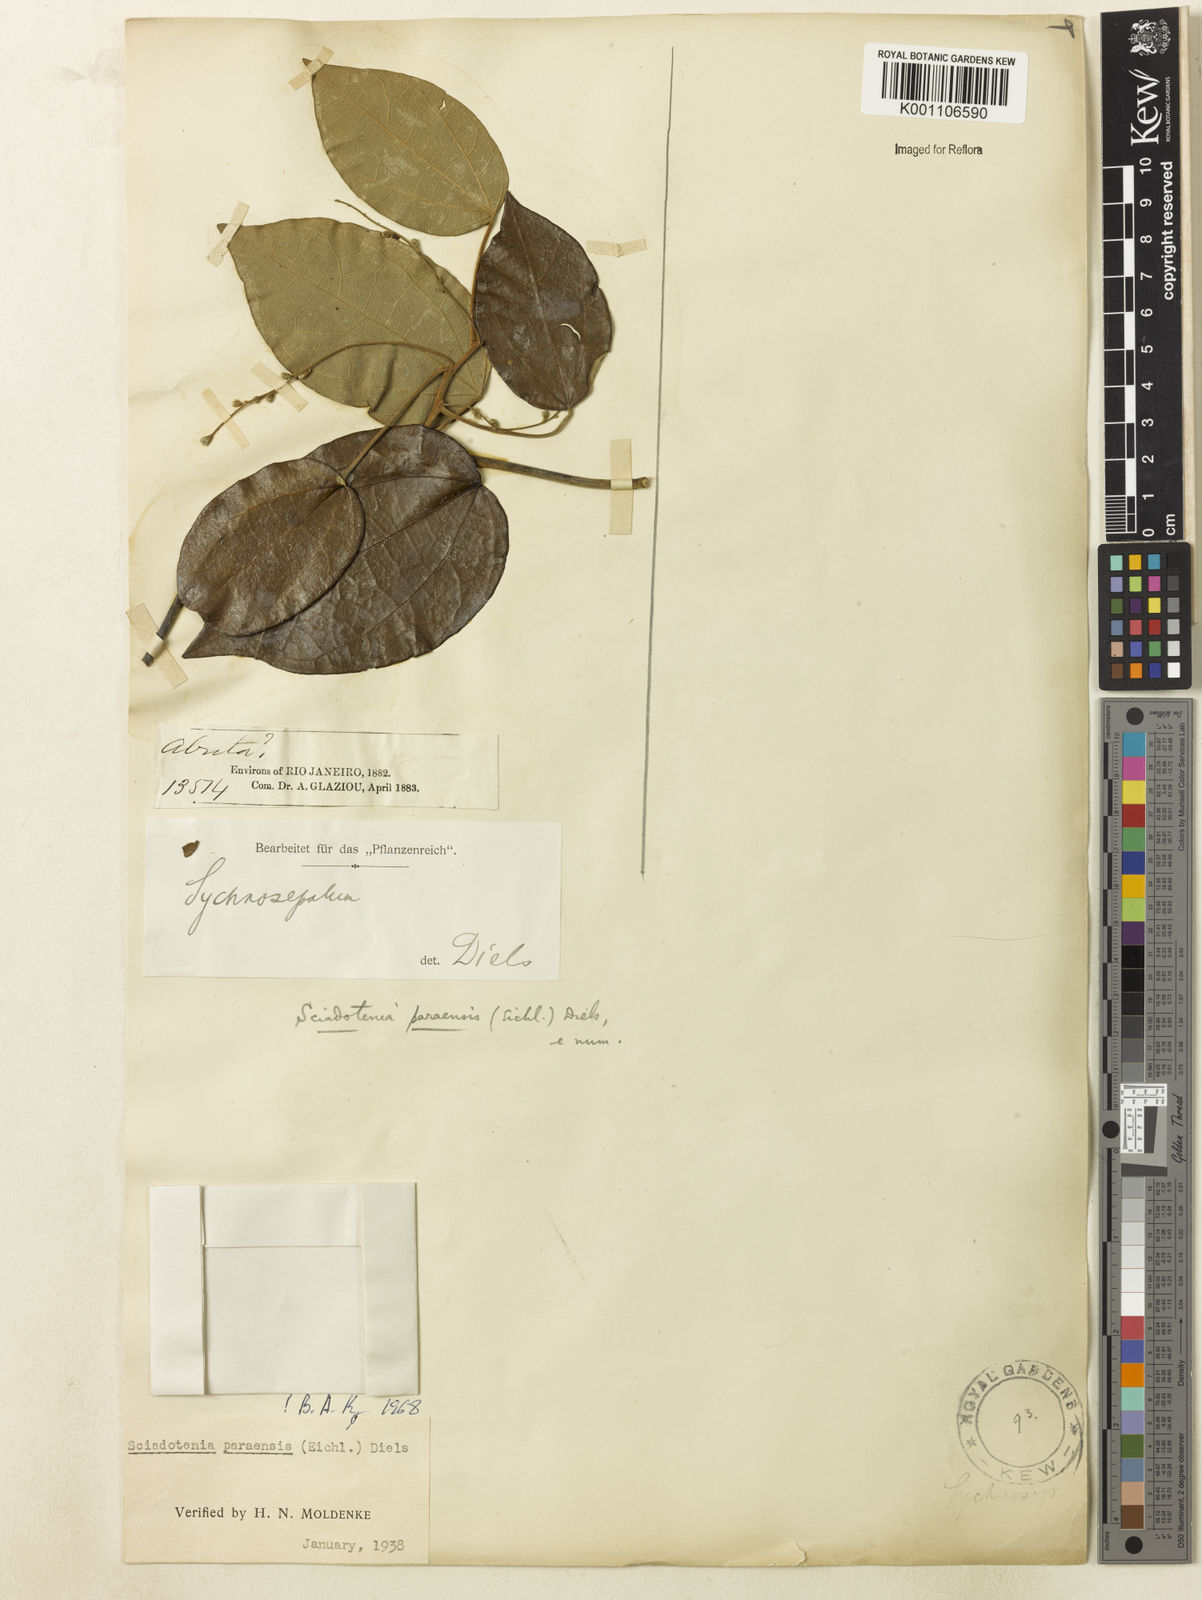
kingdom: Plantae
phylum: Tracheophyta
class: Magnoliopsida
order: Ranunculales
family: Menispermaceae
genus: Sciadotenia
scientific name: Sciadotenia paraensis
